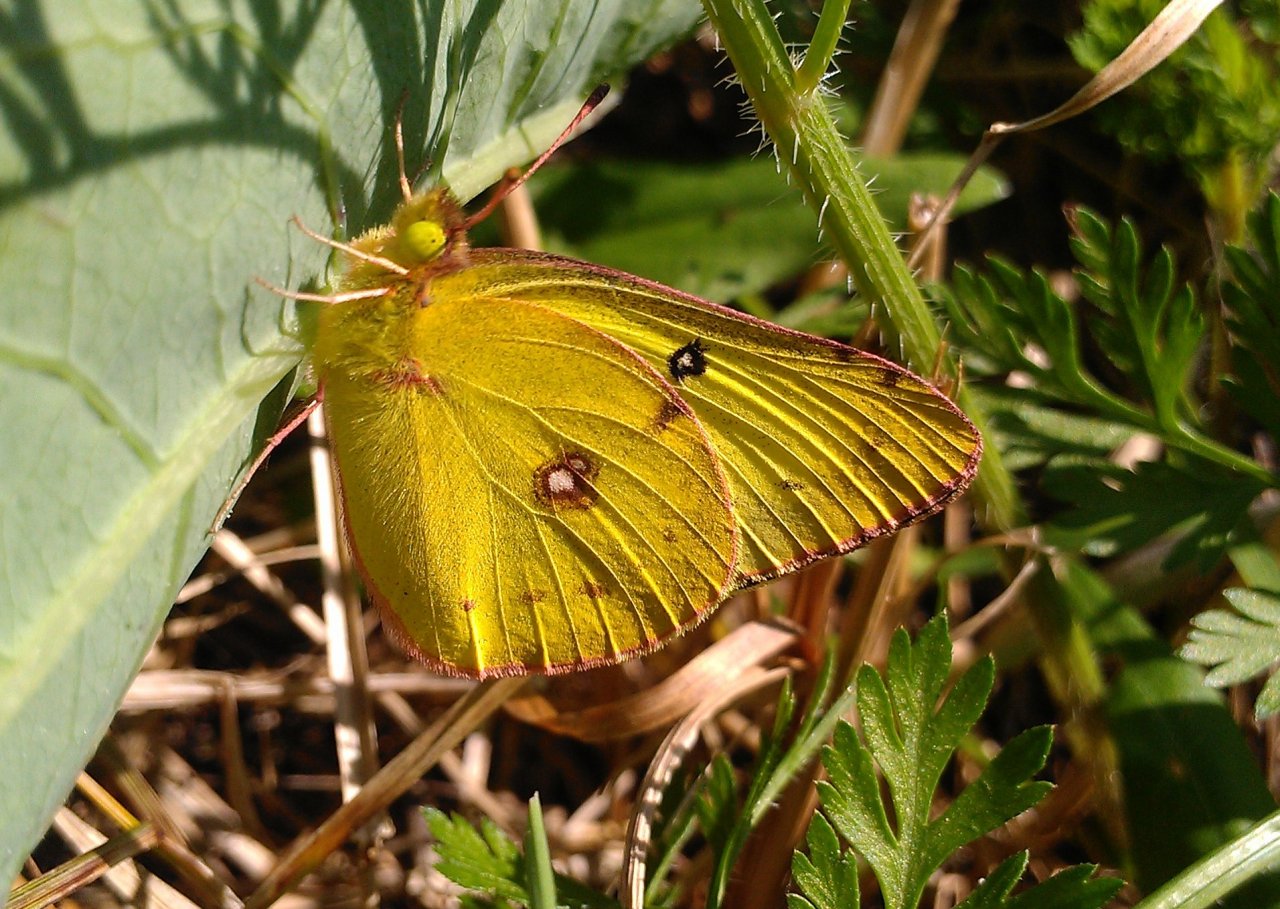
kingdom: Animalia
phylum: Arthropoda
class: Insecta
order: Lepidoptera
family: Pieridae
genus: Colias
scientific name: Colias philodice
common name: Clouded Sulphur
